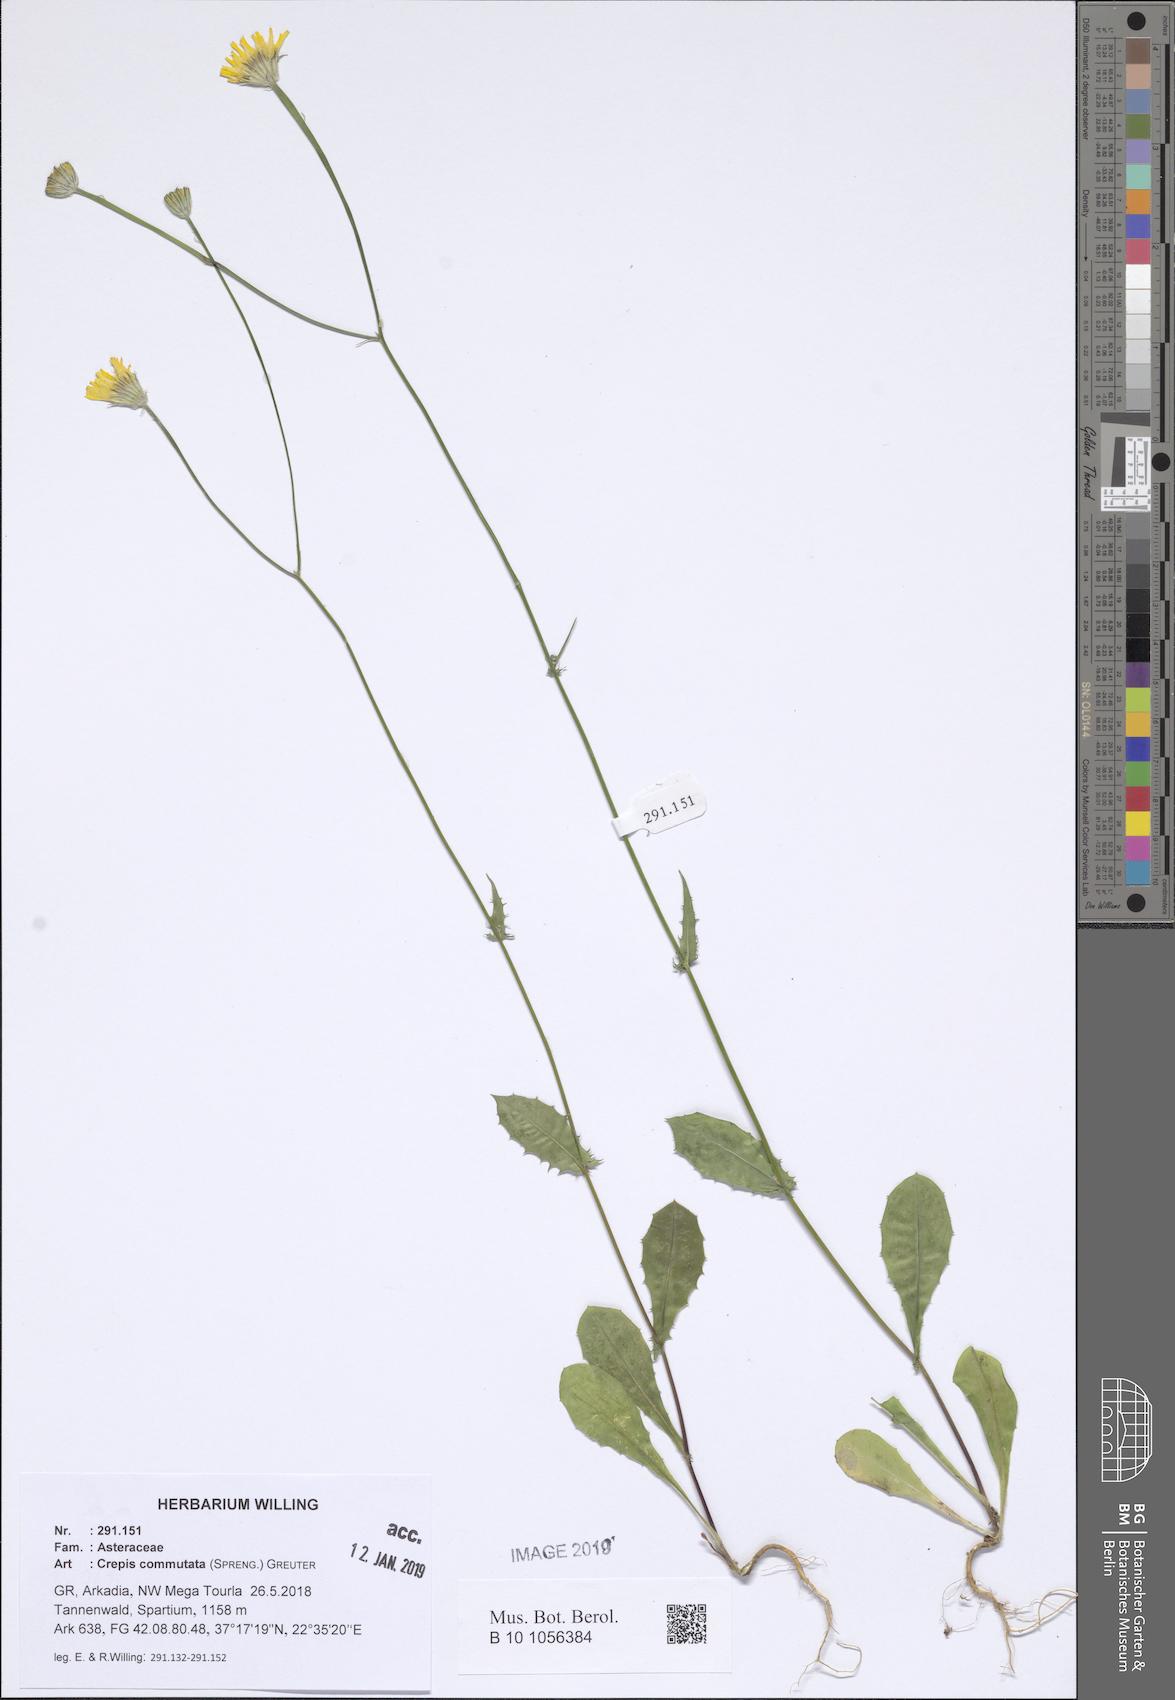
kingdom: Plantae
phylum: Tracheophyta
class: Magnoliopsida
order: Asterales
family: Asteraceae
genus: Crepis
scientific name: Crepis commutata
